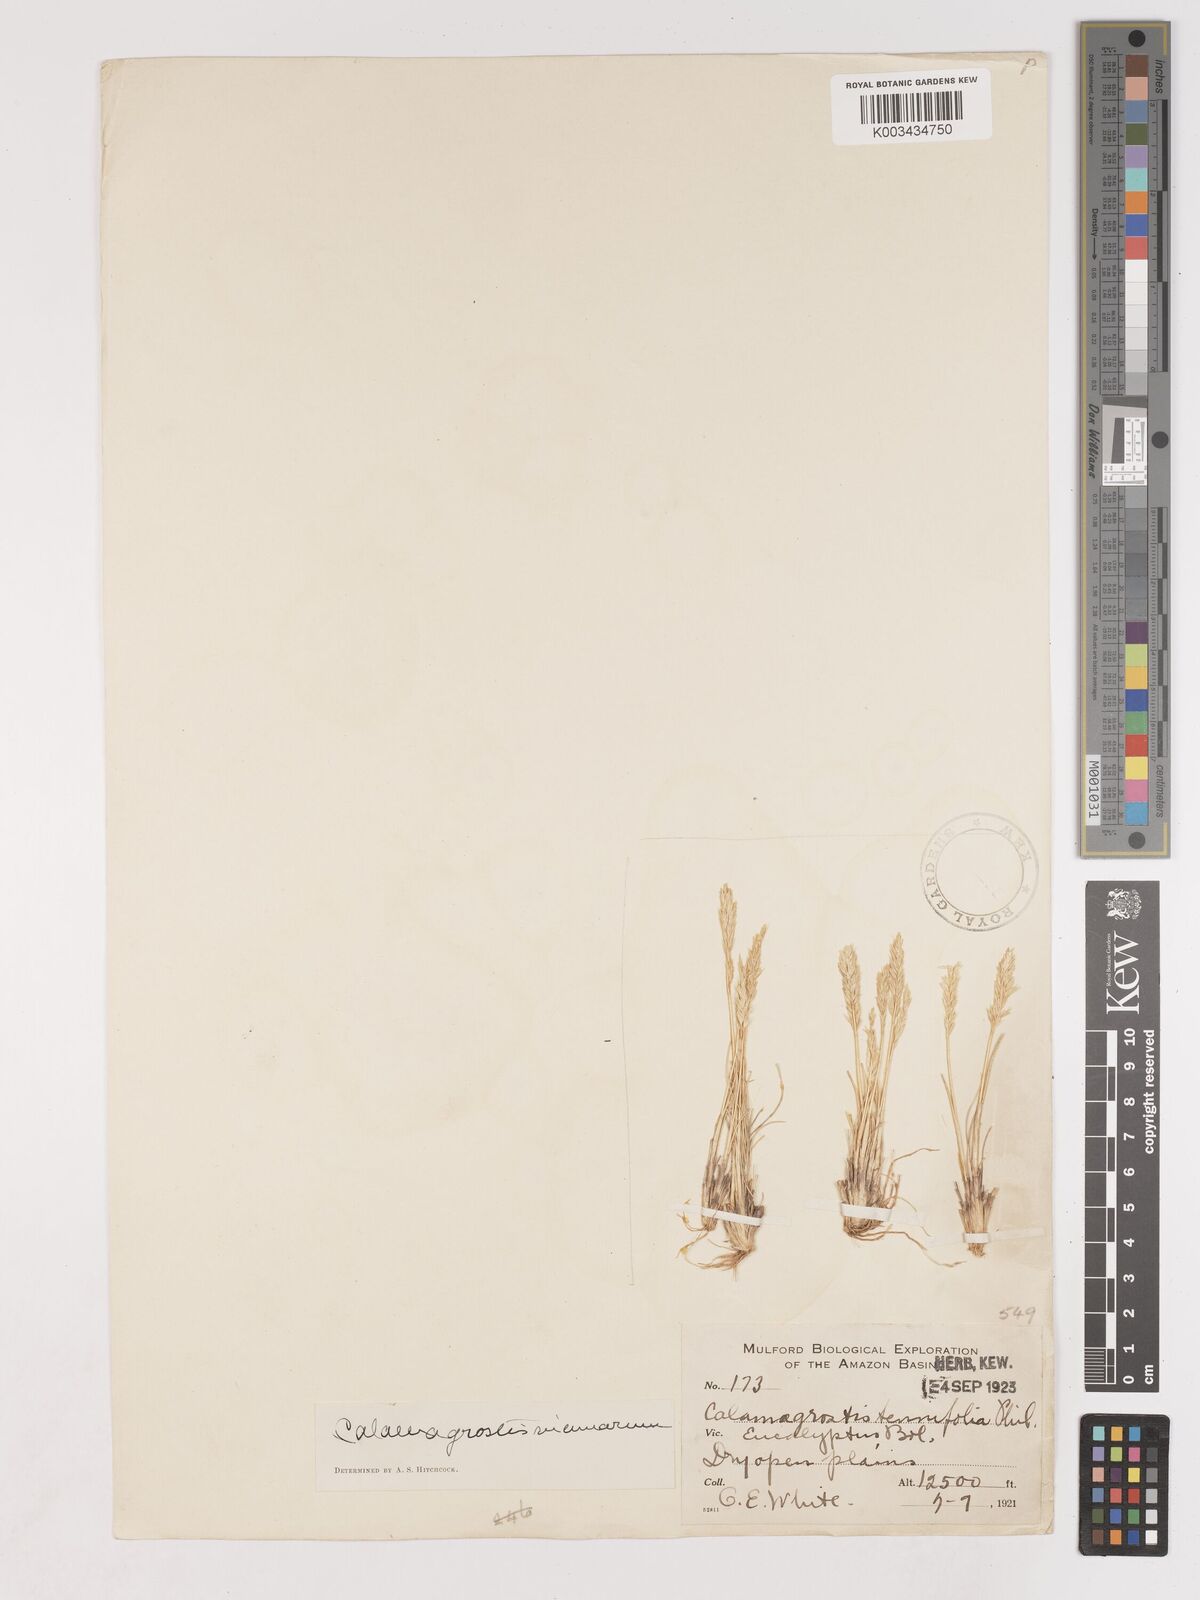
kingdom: Plantae
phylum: Tracheophyta
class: Liliopsida
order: Poales
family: Poaceae
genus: Cinnagrostis
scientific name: Cinnagrostis vicunarum
